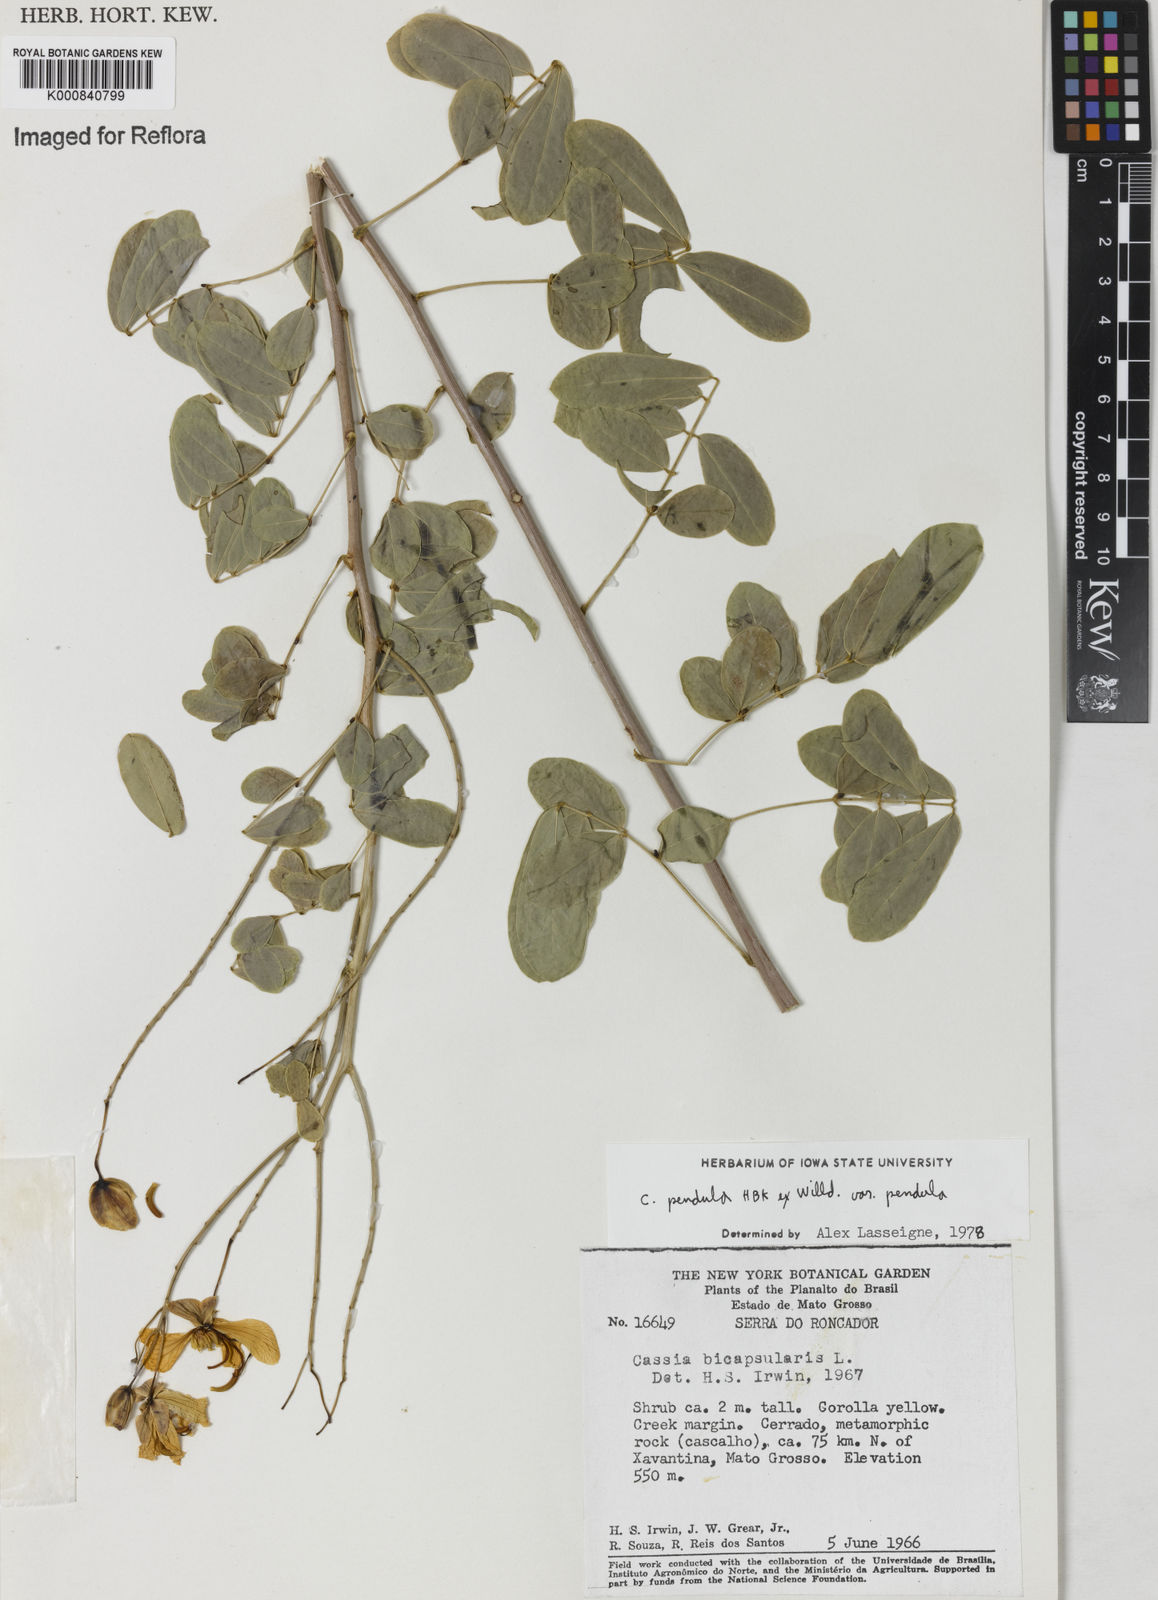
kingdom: Plantae
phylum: Tracheophyta
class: Magnoliopsida
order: Fabales
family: Fabaceae
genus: Senna
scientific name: Senna pendula
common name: Easter cassia
